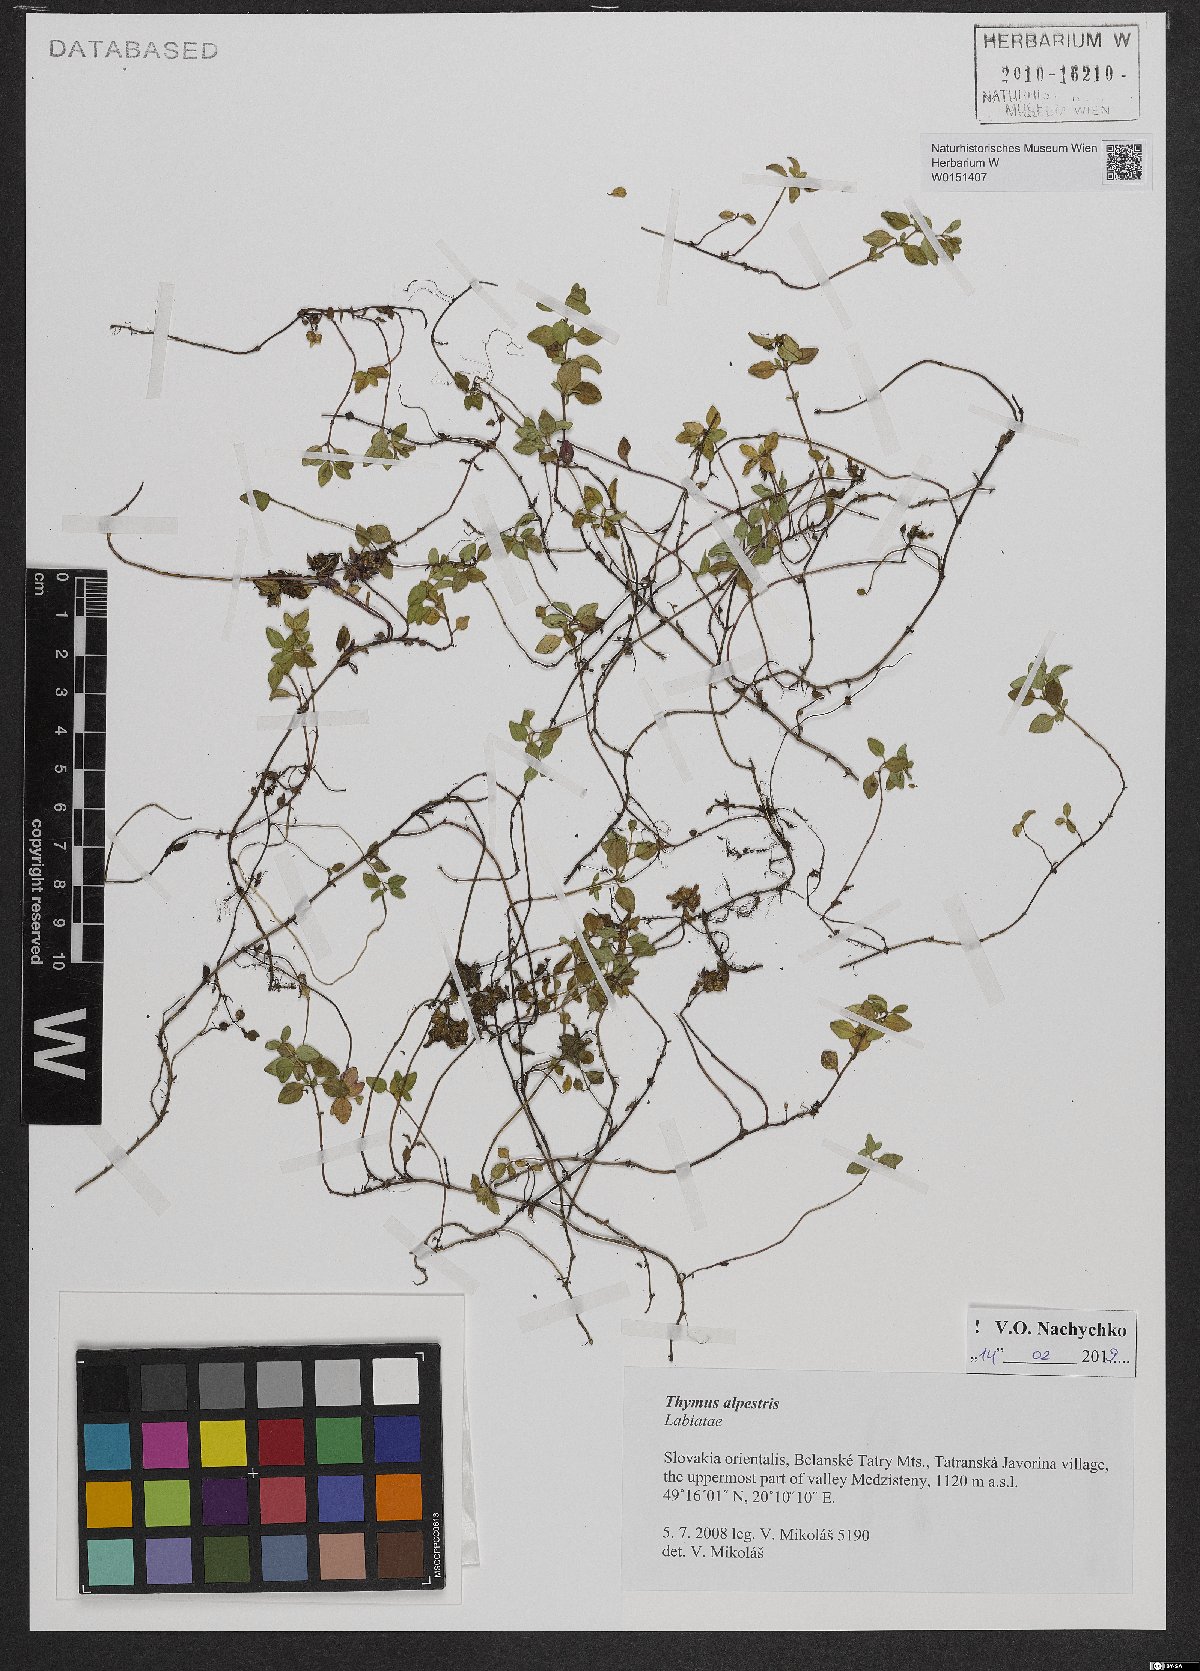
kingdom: Plantae
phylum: Tracheophyta
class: Magnoliopsida
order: Lamiales
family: Lamiaceae
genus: Thymus
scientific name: Thymus alpestris
